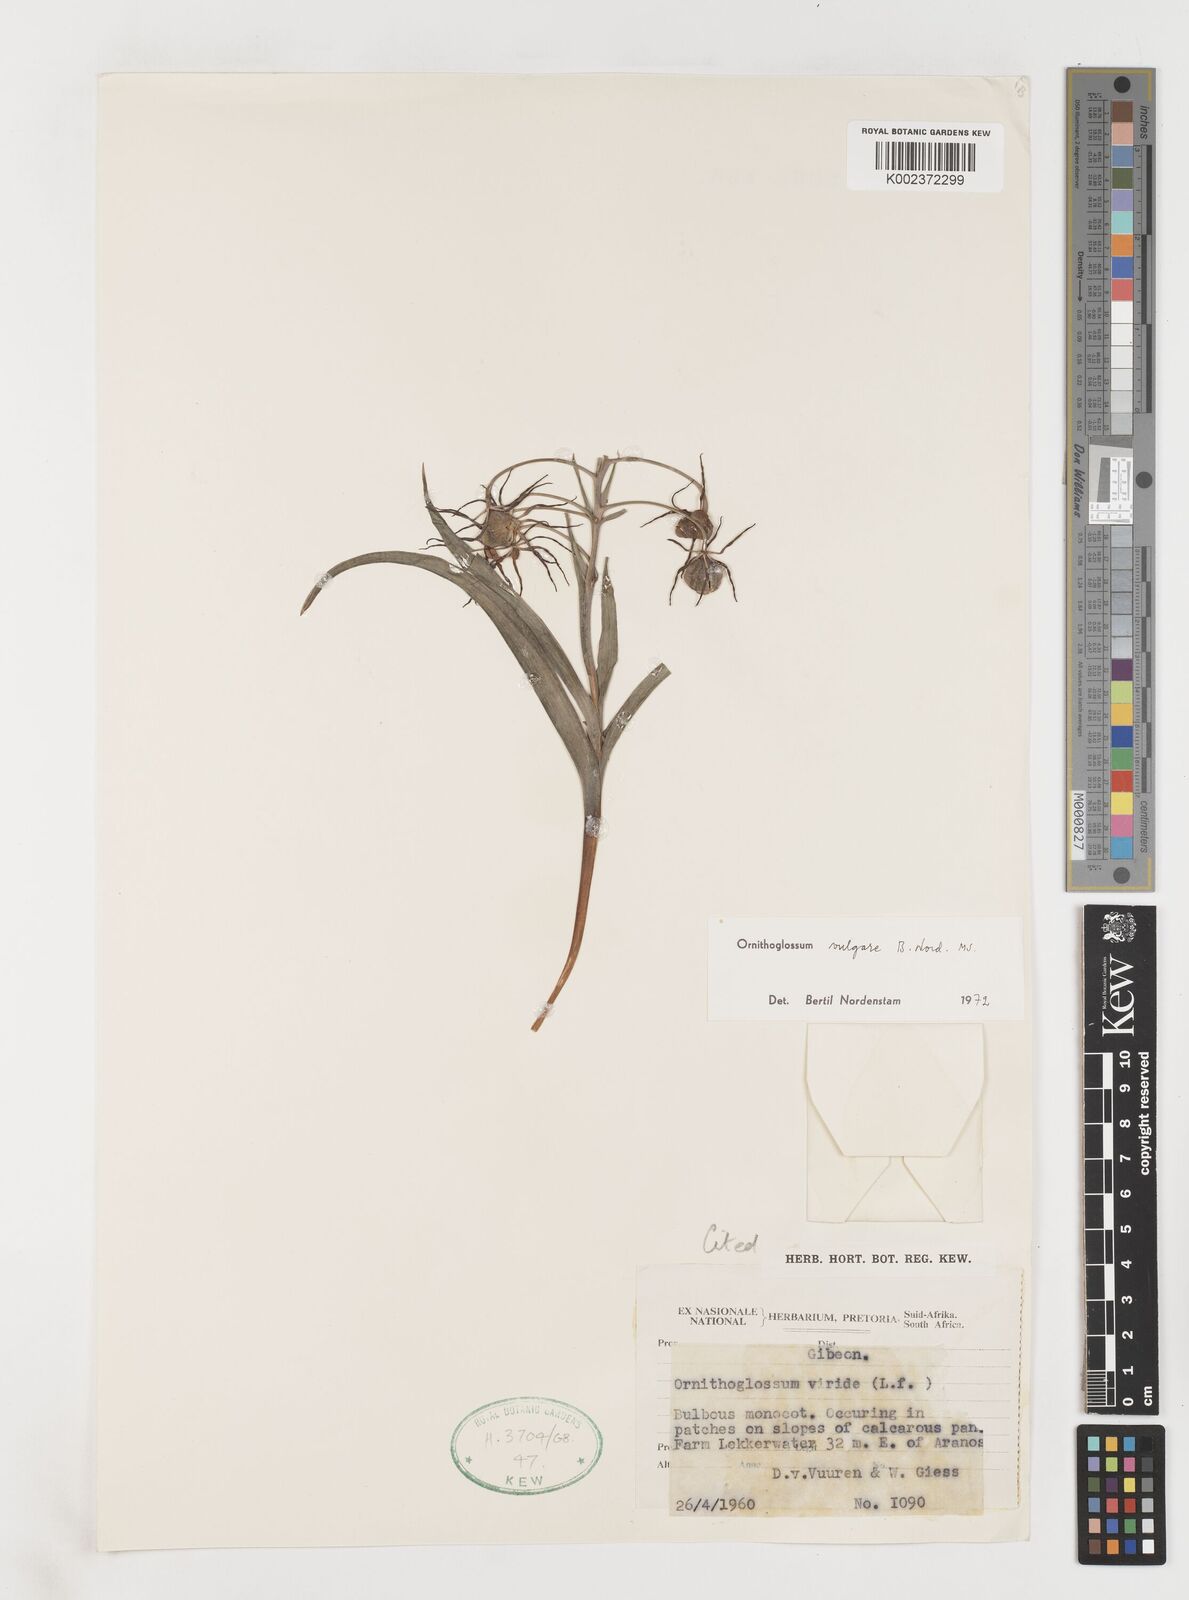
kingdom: Plantae
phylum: Tracheophyta
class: Liliopsida
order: Liliales
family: Colchicaceae
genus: Ornithoglossum
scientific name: Ornithoglossum vulgare
